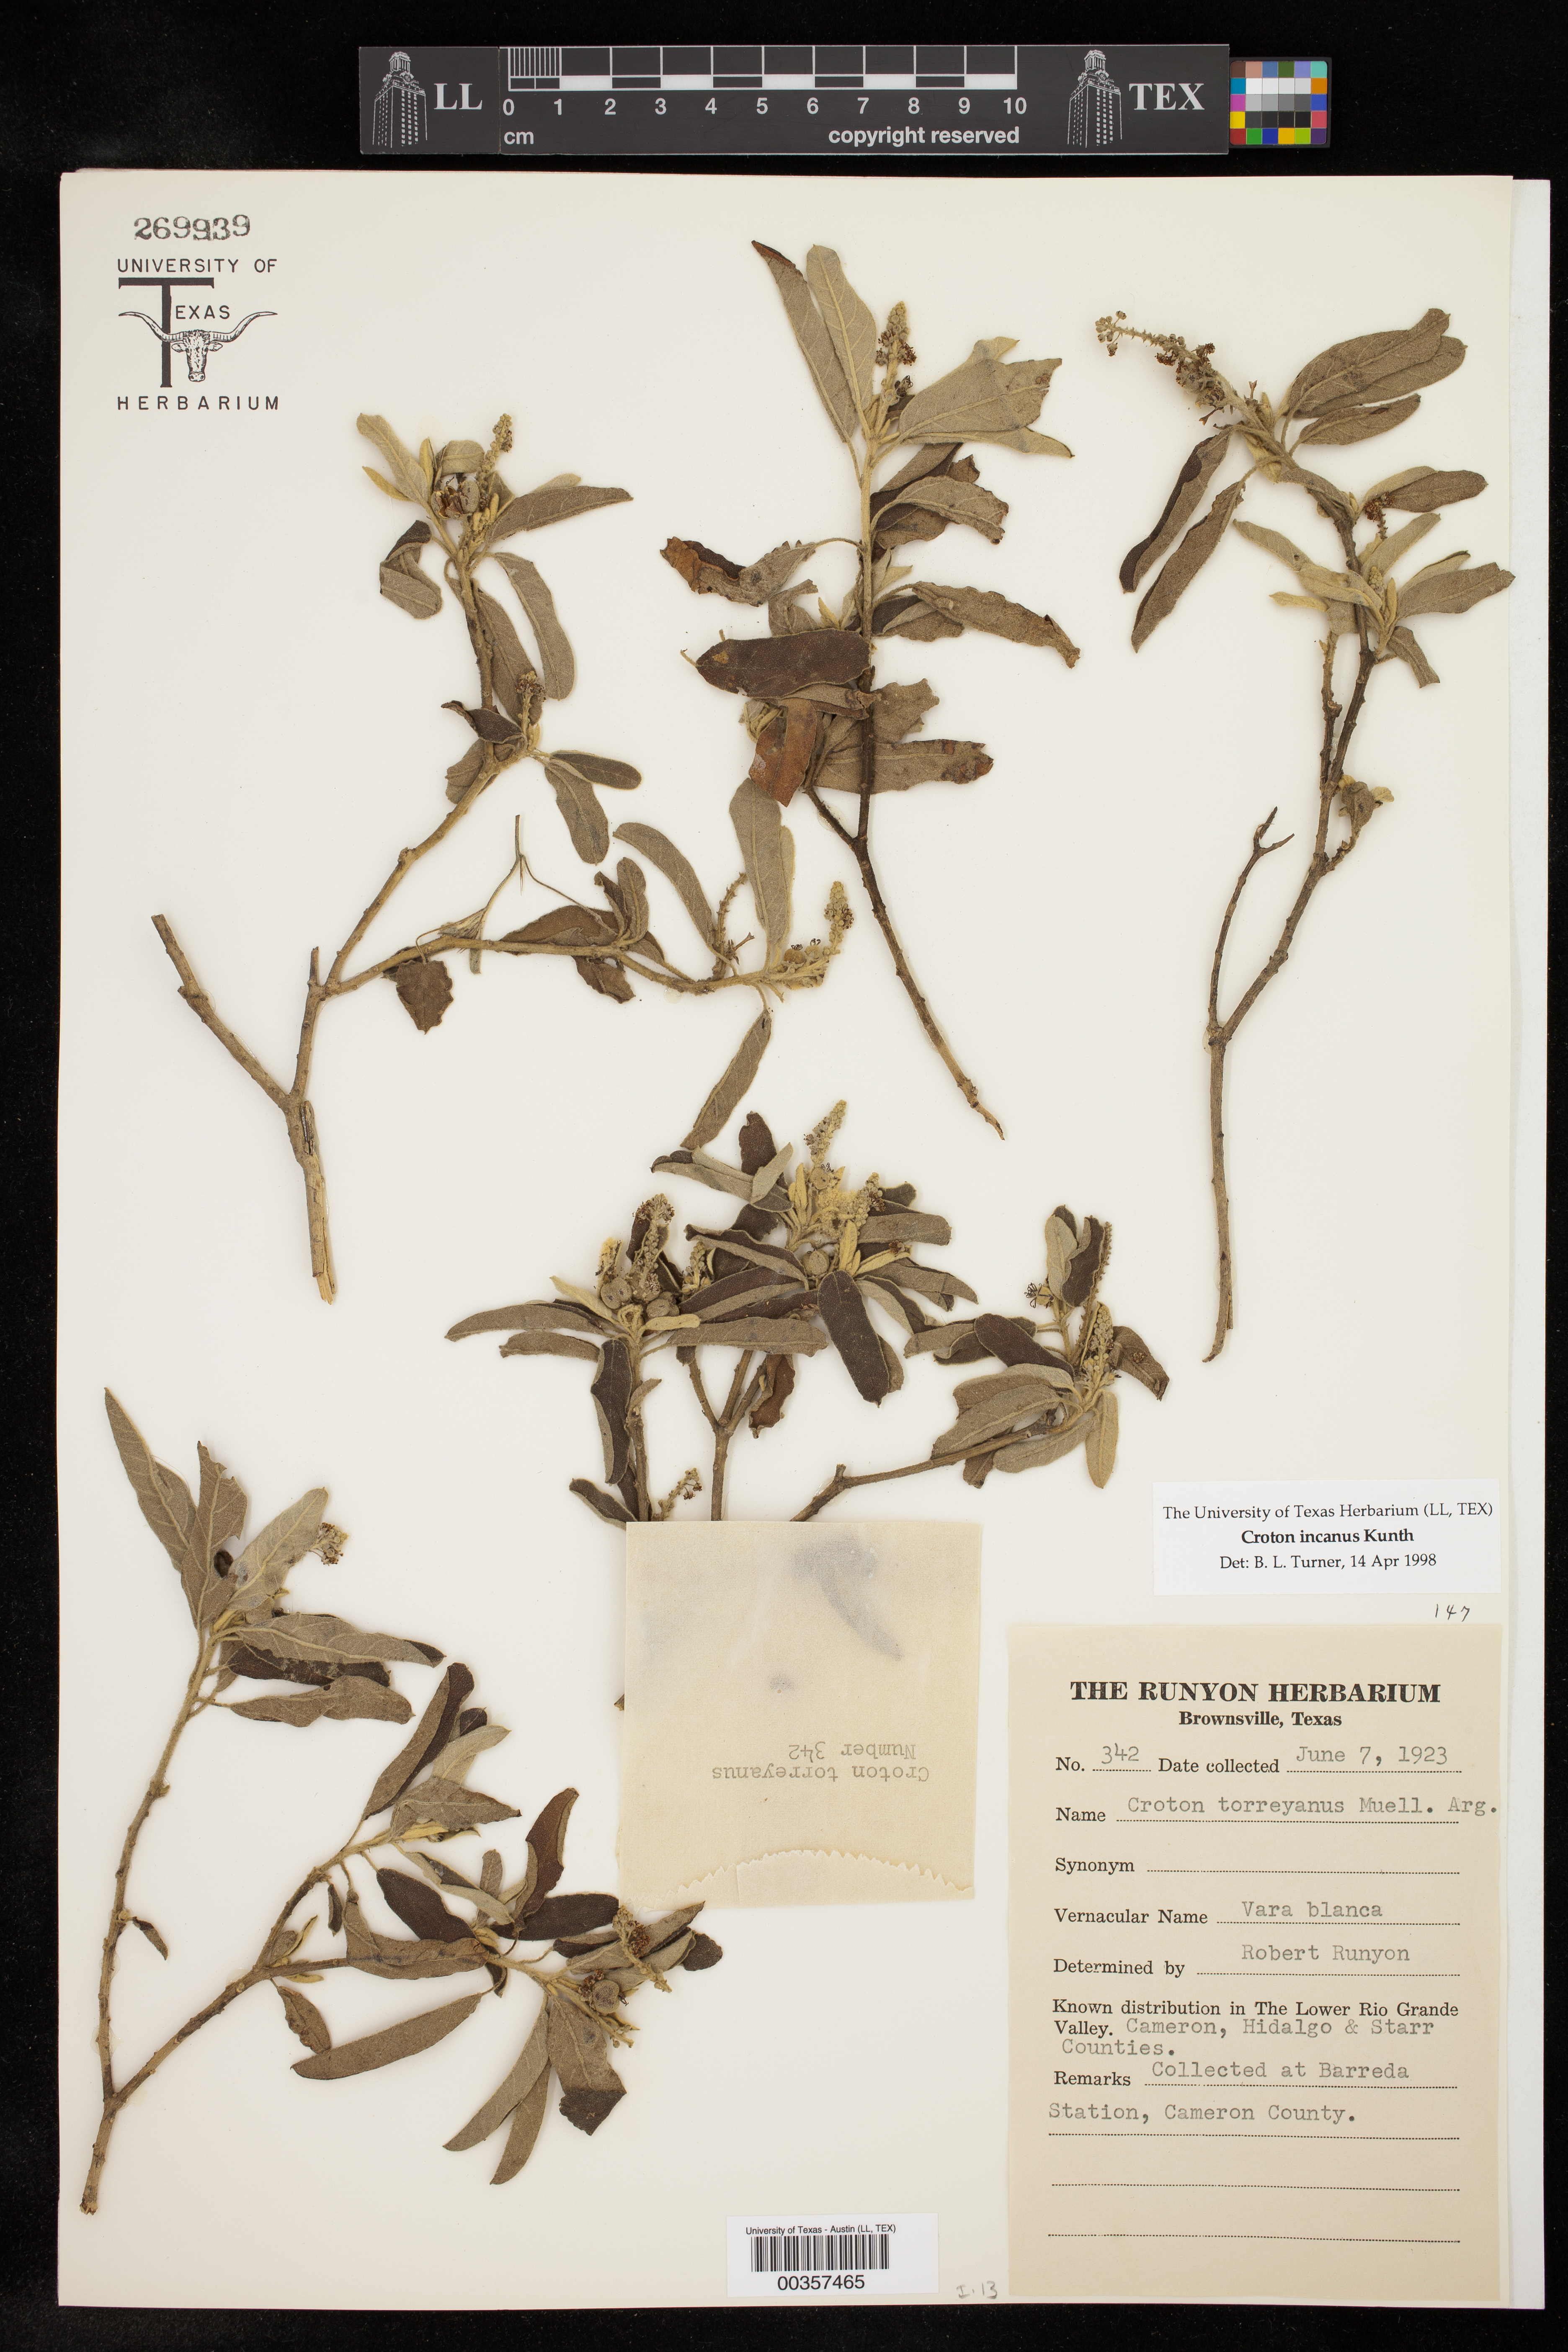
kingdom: Plantae
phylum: Tracheophyta
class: Magnoliopsida
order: Malpighiales
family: Euphorbiaceae
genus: Croton
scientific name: Croton incanus
